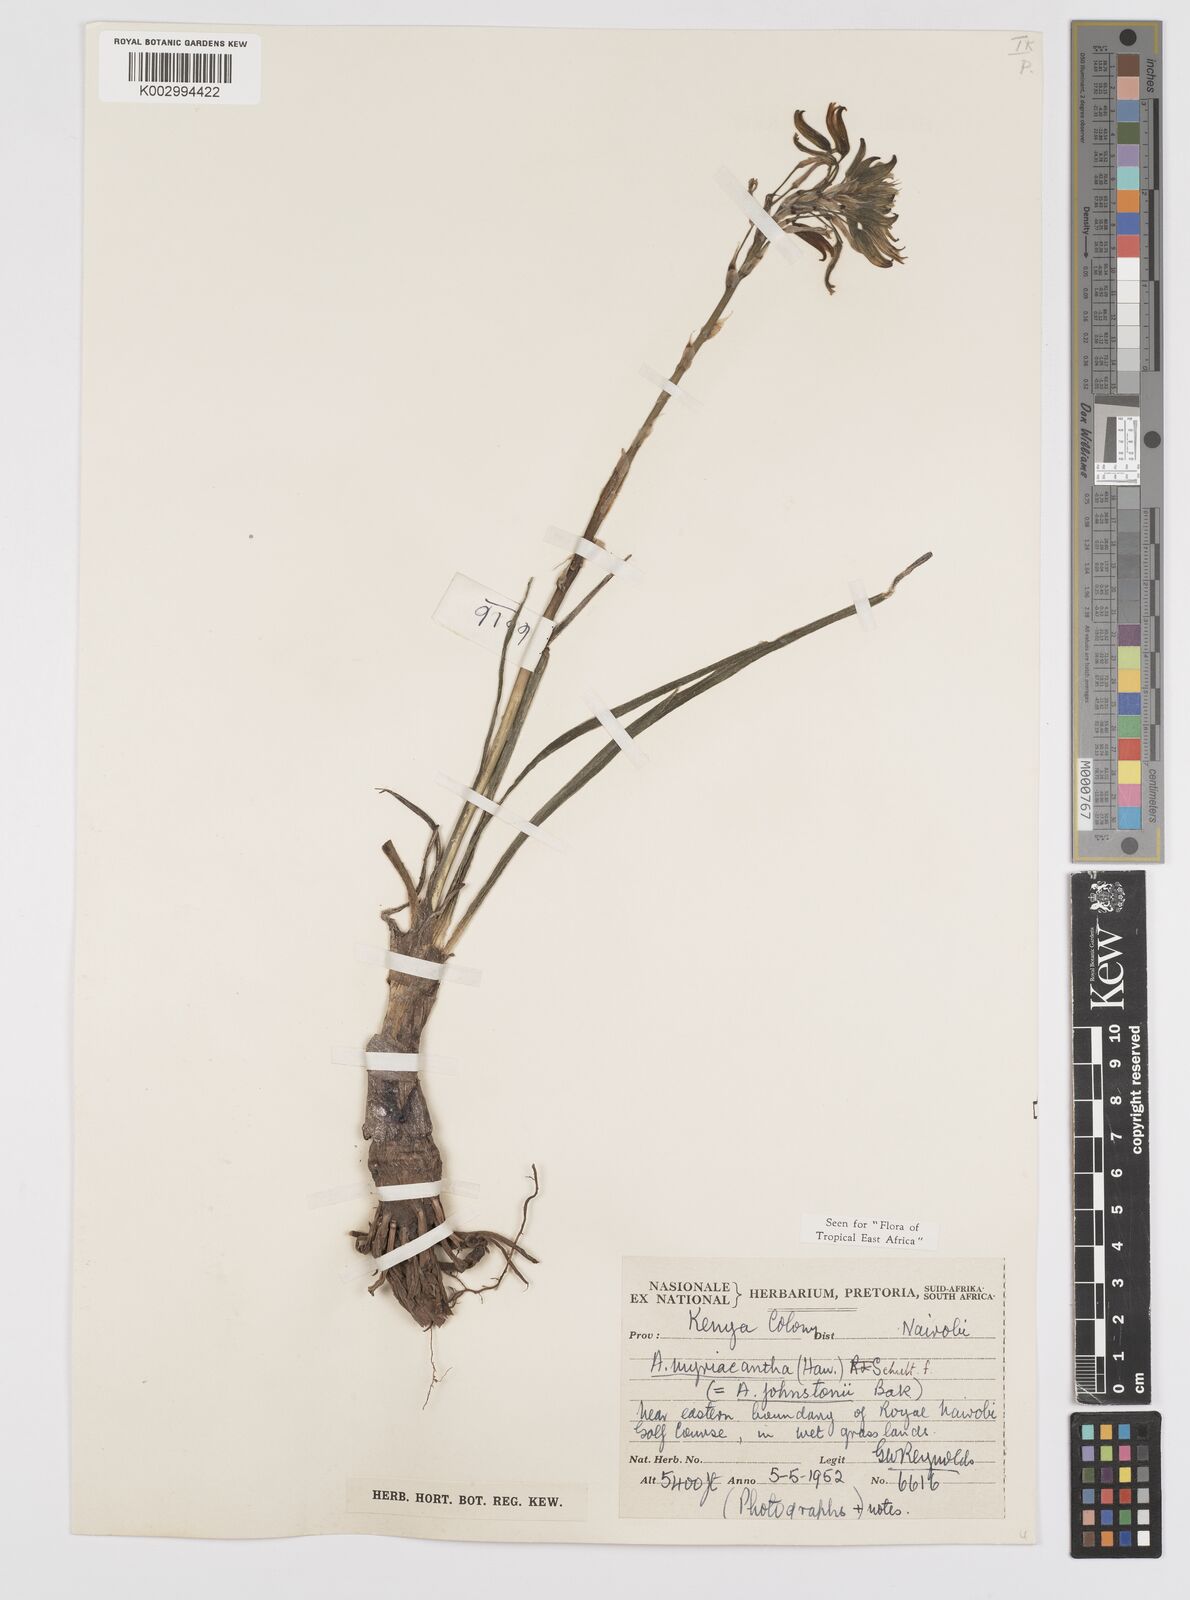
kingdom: Plantae
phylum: Tracheophyta
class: Liliopsida
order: Asparagales
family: Asphodelaceae
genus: Aloe
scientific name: Aloe myriacantha
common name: Grass aloe
